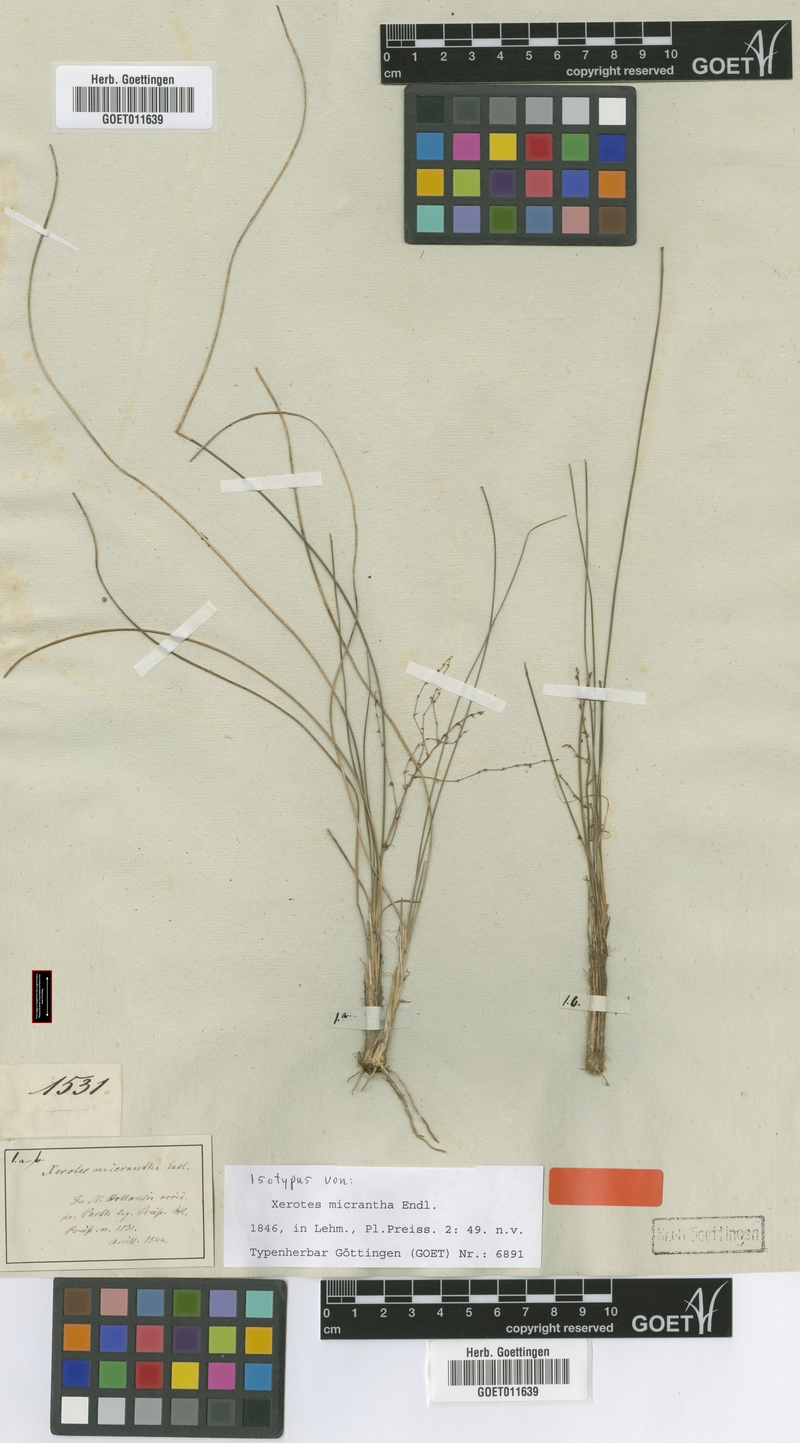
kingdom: Plantae
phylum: Tracheophyta
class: Liliopsida
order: Asparagales
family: Asparagaceae
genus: Lomandra
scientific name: Lomandra micrantha
